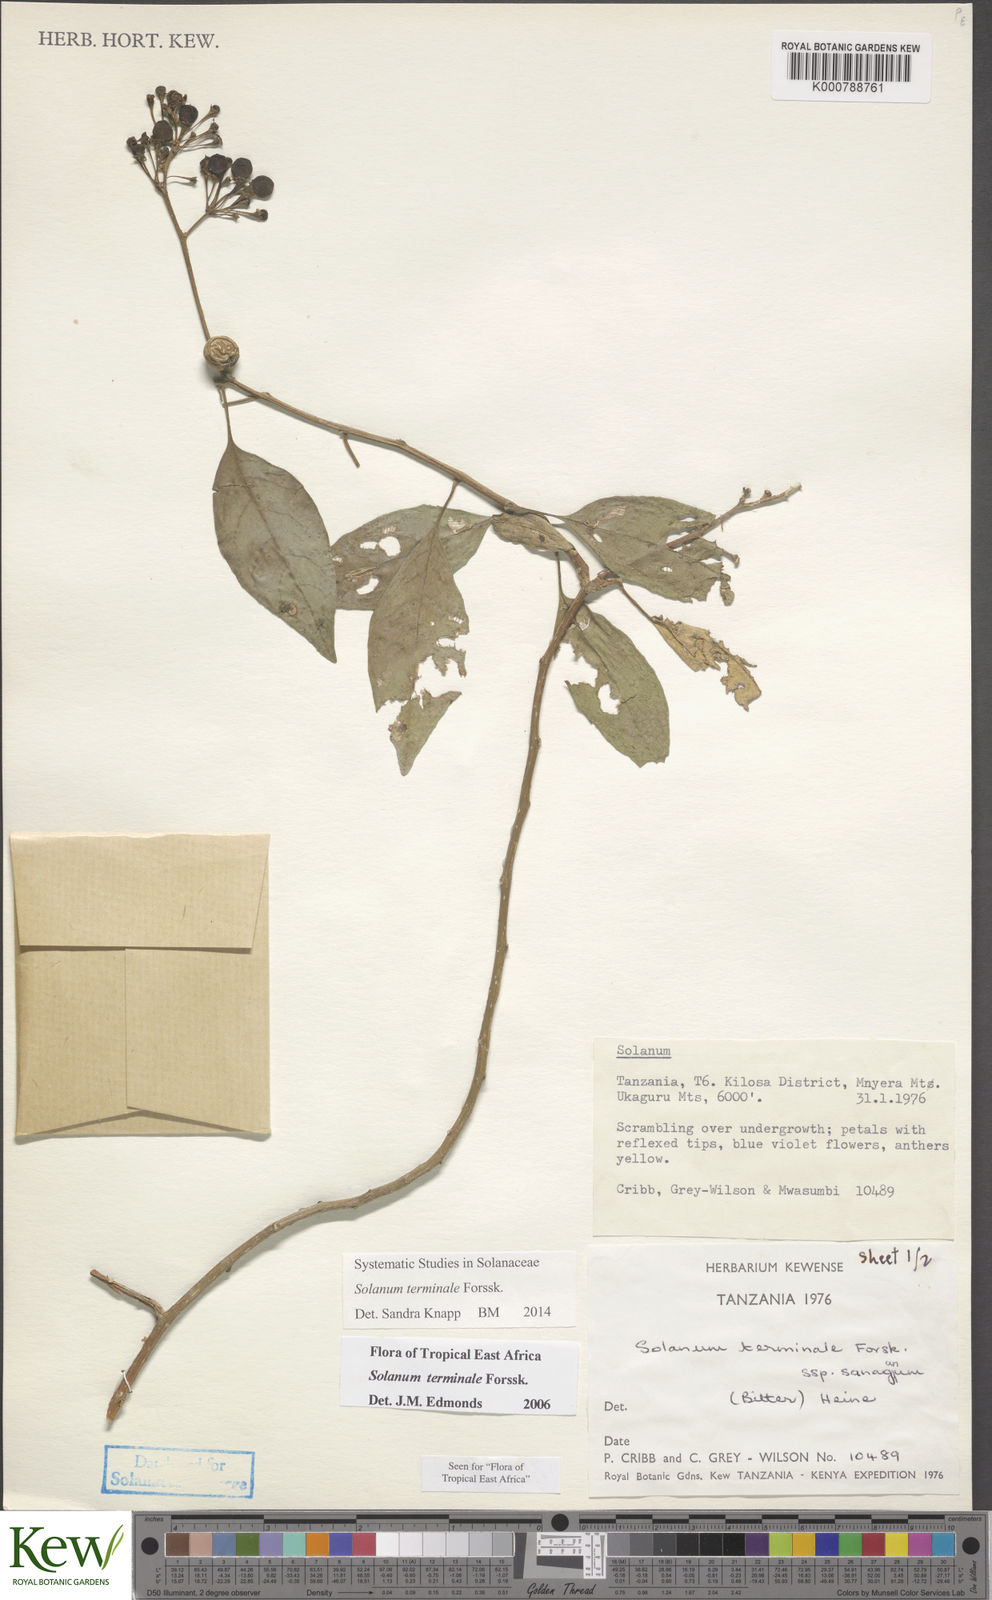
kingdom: Plantae
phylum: Tracheophyta
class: Magnoliopsida
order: Solanales
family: Solanaceae
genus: Solanum
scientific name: Solanum terminale
